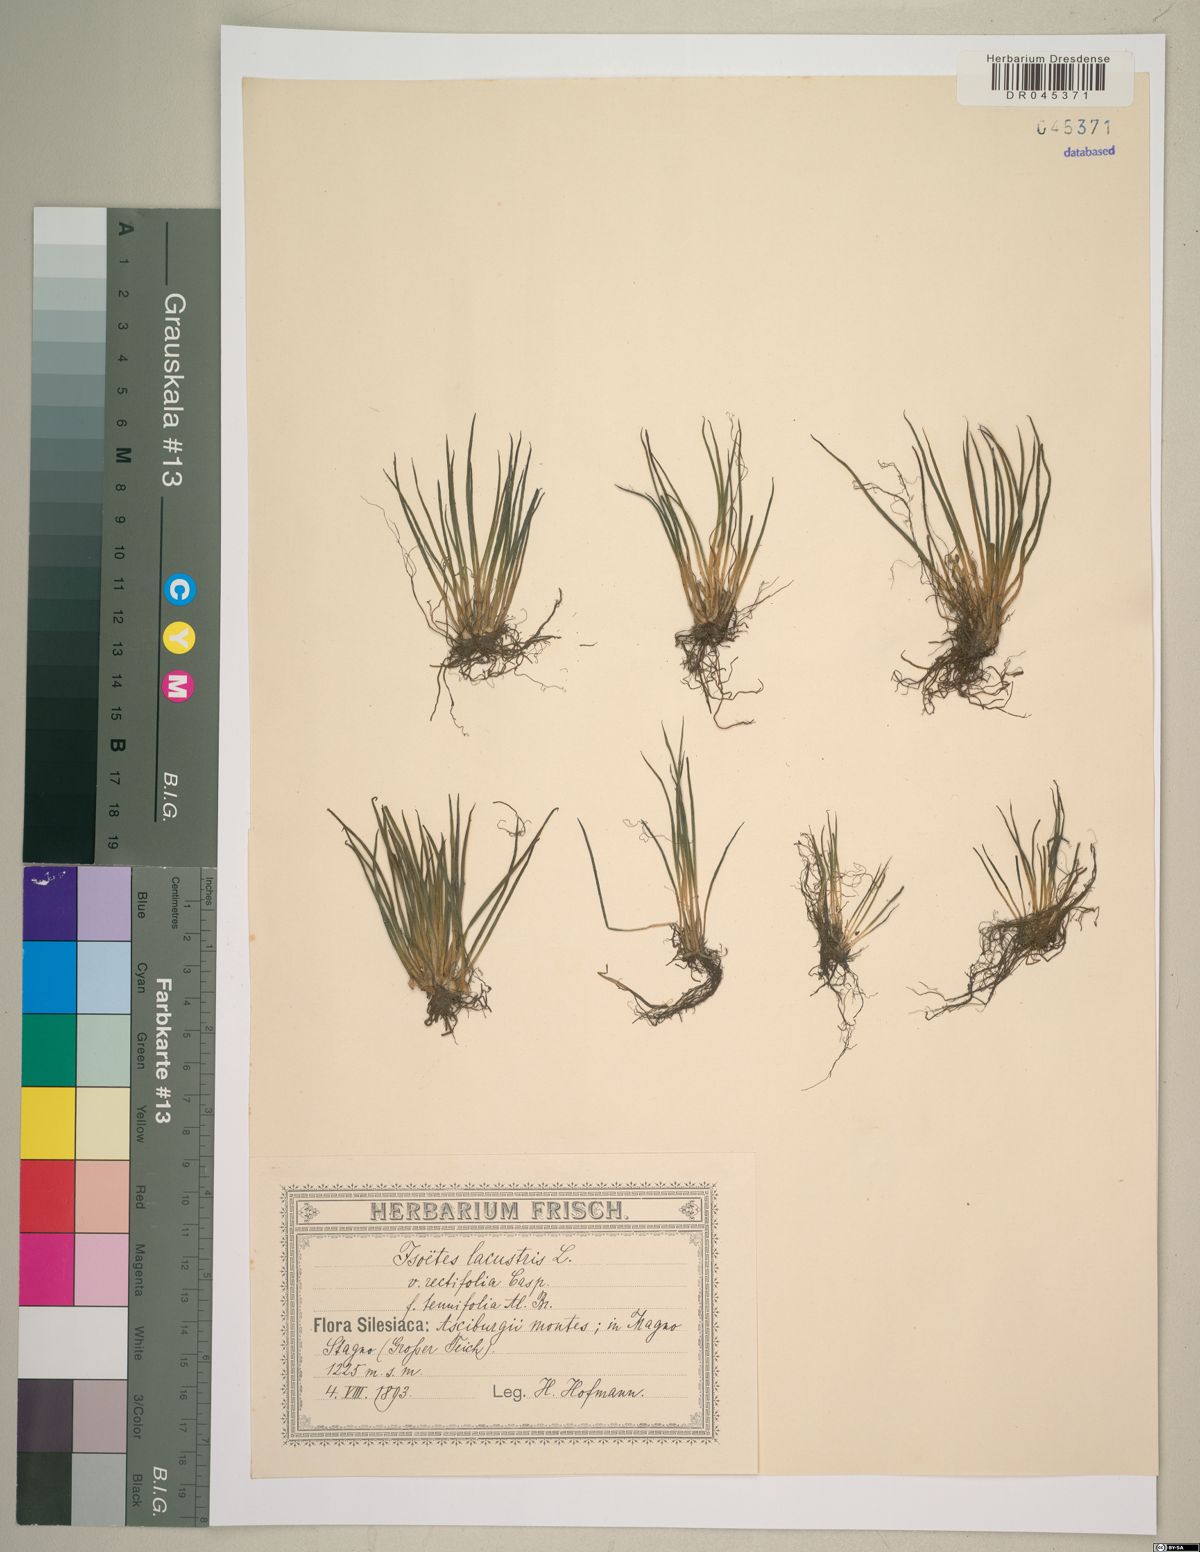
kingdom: Plantae
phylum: Tracheophyta
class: Lycopodiopsida
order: Isoetales
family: Isoetaceae
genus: Isoetes
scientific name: Isoetes lacustris
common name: Common quillwort
